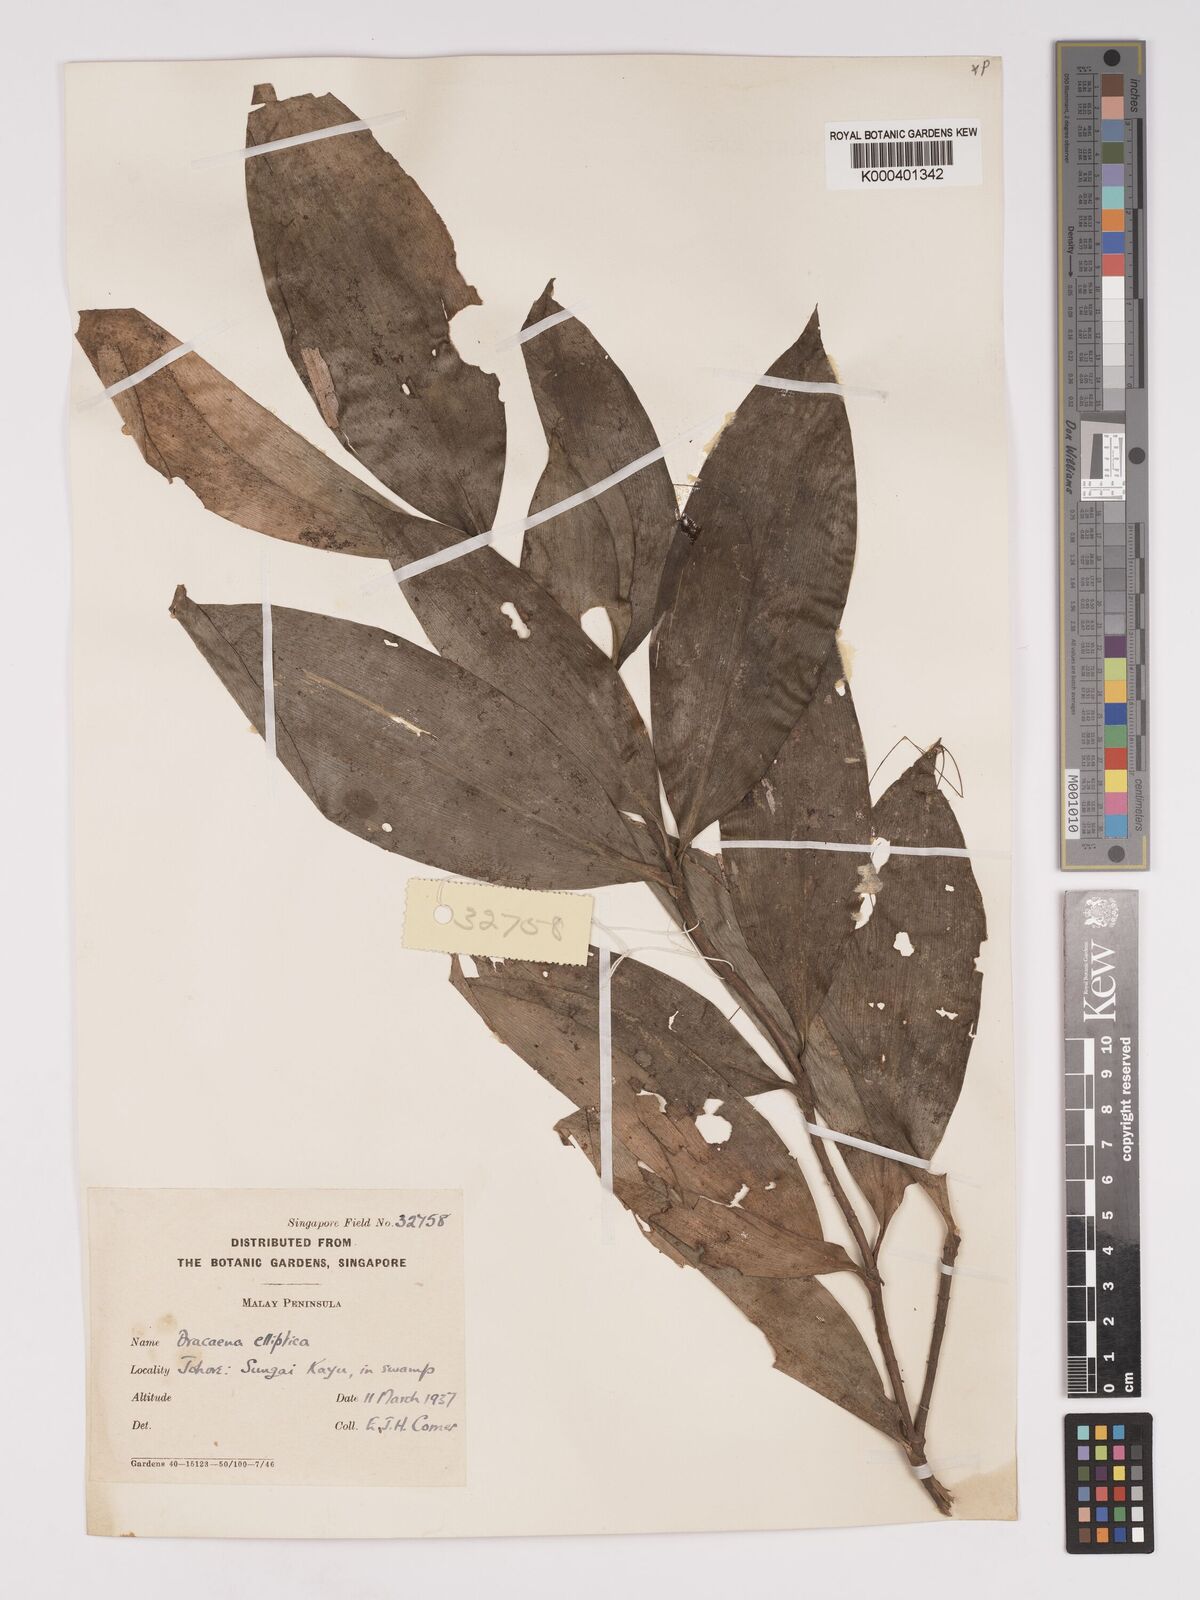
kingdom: Plantae
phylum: Tracheophyta
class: Liliopsida
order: Asparagales
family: Asparagaceae
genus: Dracaena
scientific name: Dracaena elliptica
